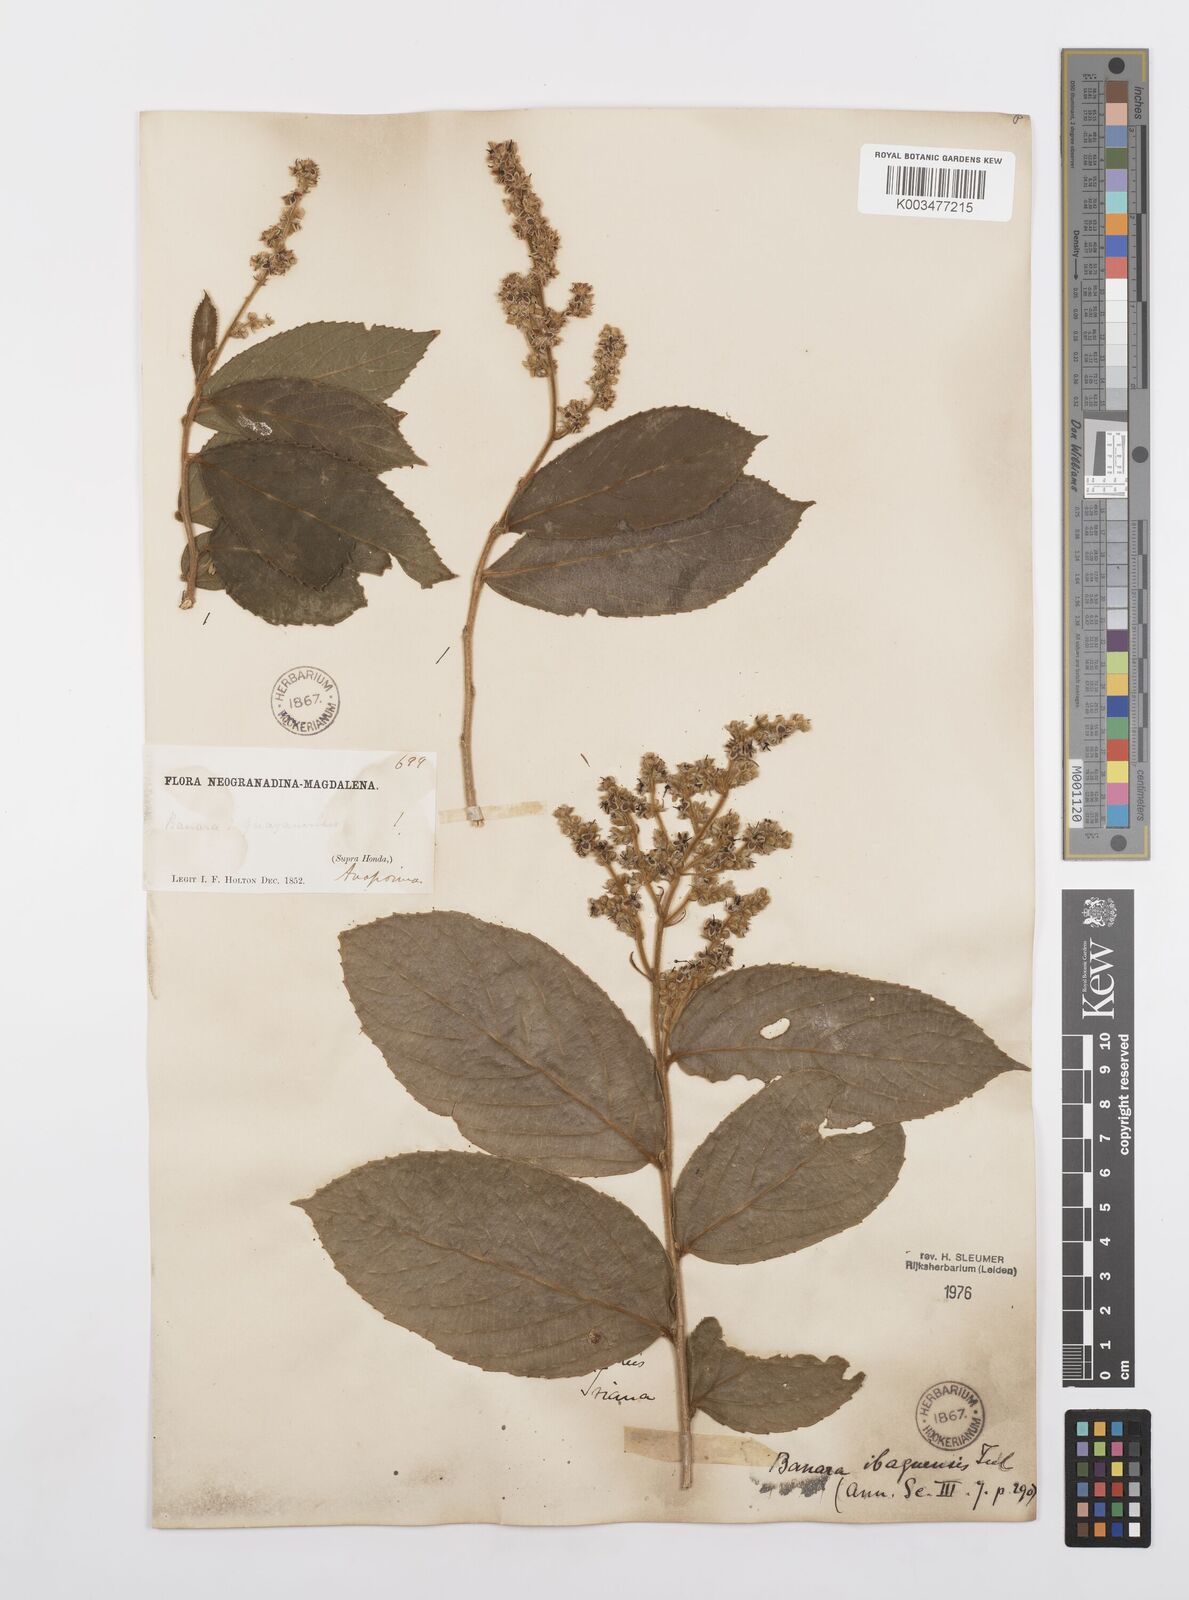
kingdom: Plantae
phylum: Tracheophyta
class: Magnoliopsida
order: Malpighiales
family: Salicaceae
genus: Banara
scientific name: Banara ibaguensis
